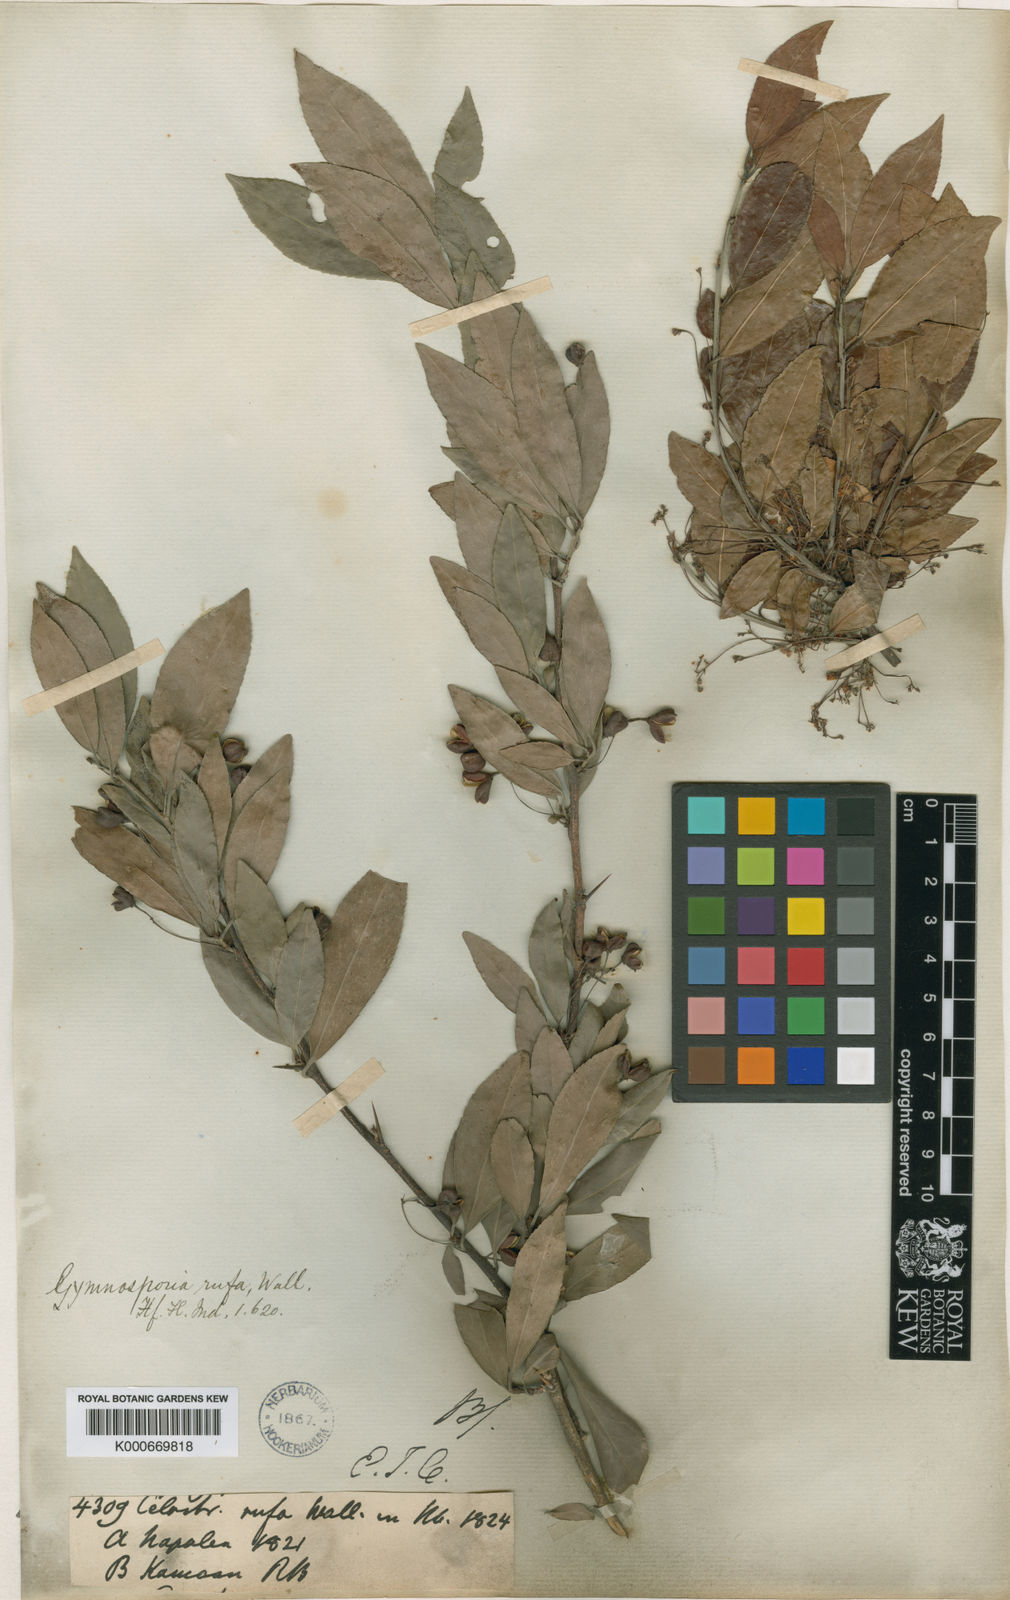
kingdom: Plantae
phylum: Tracheophyta
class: Magnoliopsida
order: Celastrales
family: Celastraceae
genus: Gymnosporia
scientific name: Gymnosporia
